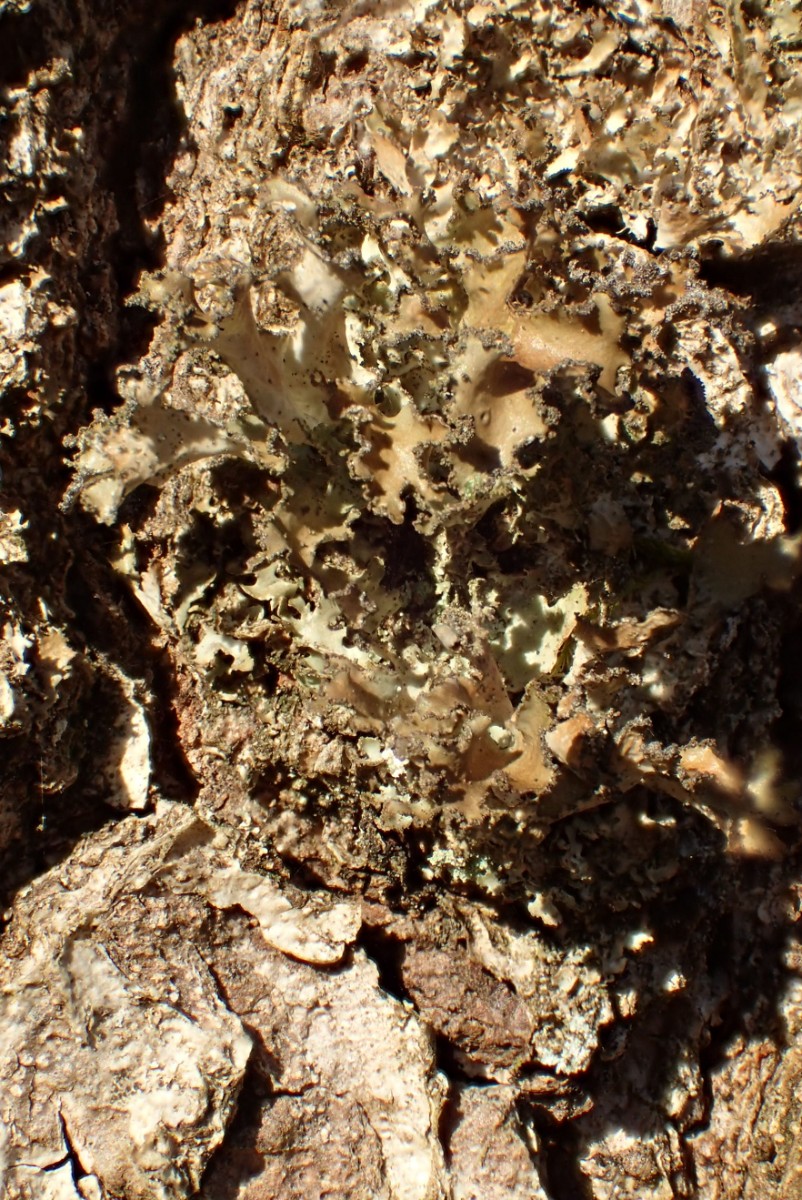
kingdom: Fungi
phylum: Ascomycota
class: Lecanoromycetes
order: Lecanorales
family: Parmeliaceae
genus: Nephromopsis
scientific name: Nephromopsis chlorophylla
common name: olivenbrun kruslav
